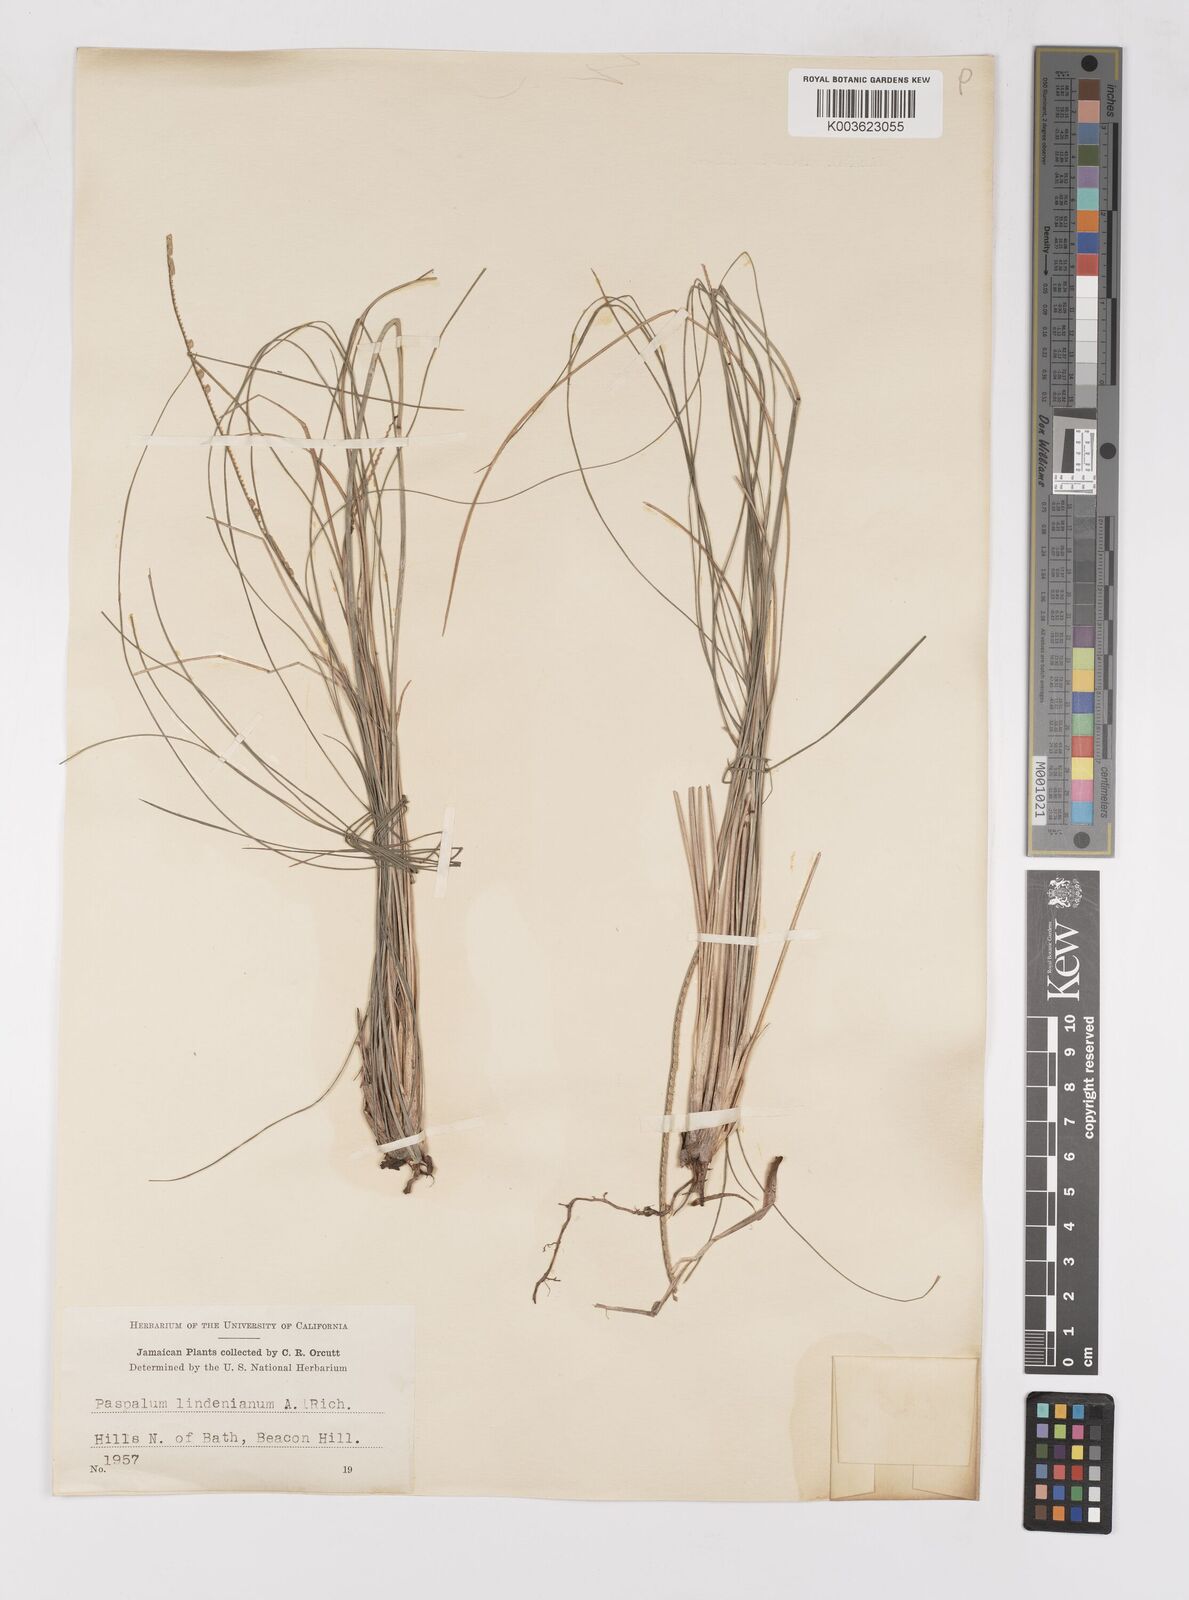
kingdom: Plantae
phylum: Tracheophyta
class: Liliopsida
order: Poales
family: Poaceae
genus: Paspalum
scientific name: Paspalum lindenianum
